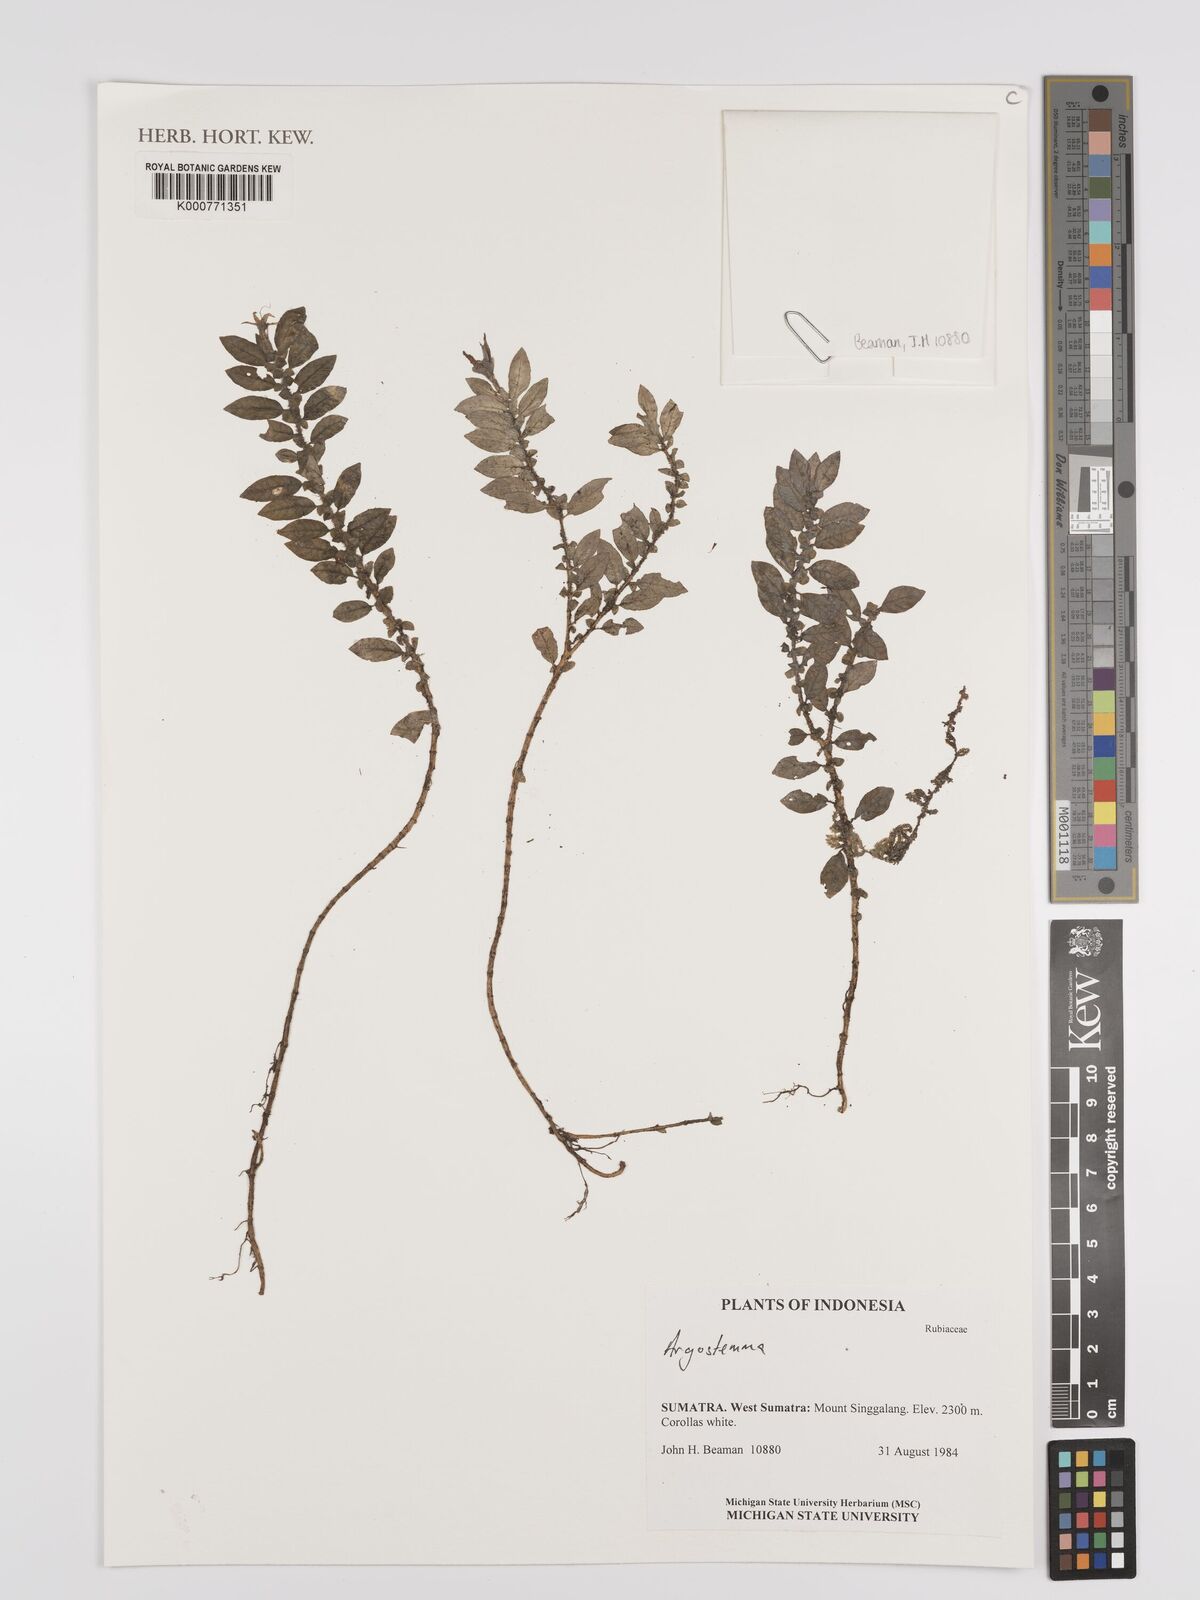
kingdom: Plantae
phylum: Tracheophyta
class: Magnoliopsida
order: Gentianales
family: Rubiaceae
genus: Argostemma
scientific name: Argostemma
